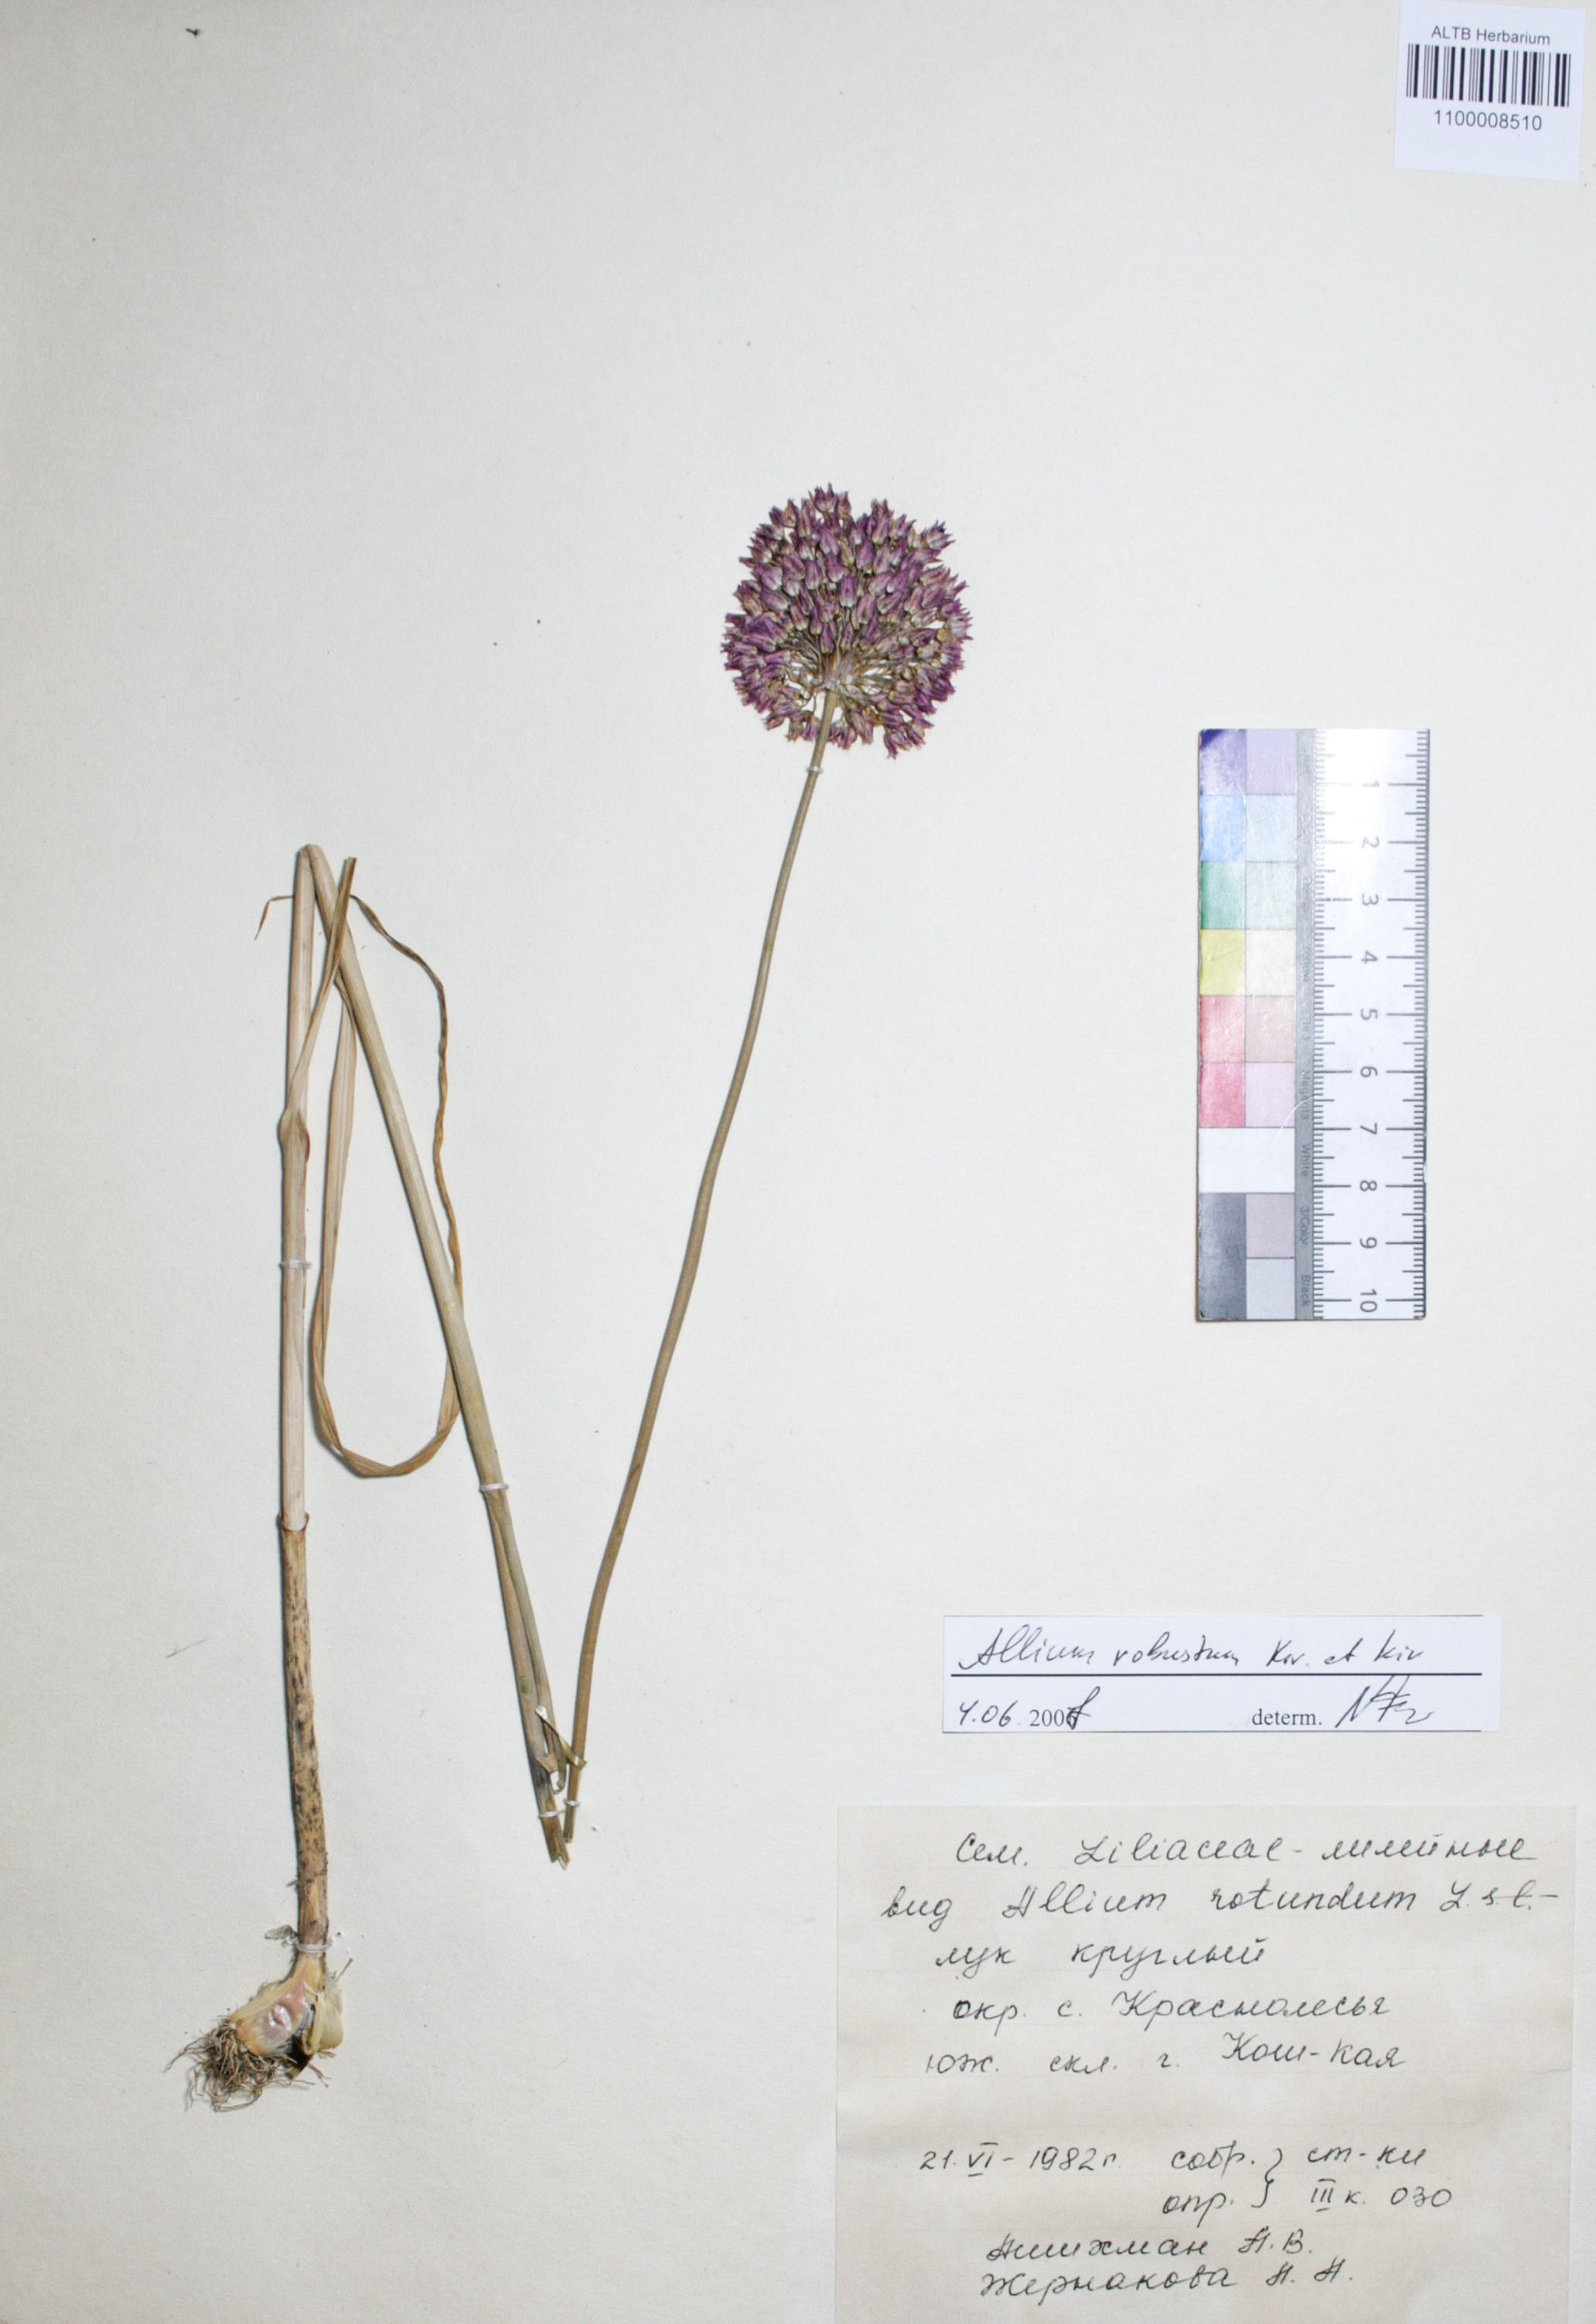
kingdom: Plantae
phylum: Tracheophyta
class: Liliopsida
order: Asparagales
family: Amaryllidaceae
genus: Allium
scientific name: Allium rotundum
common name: Sand leek
